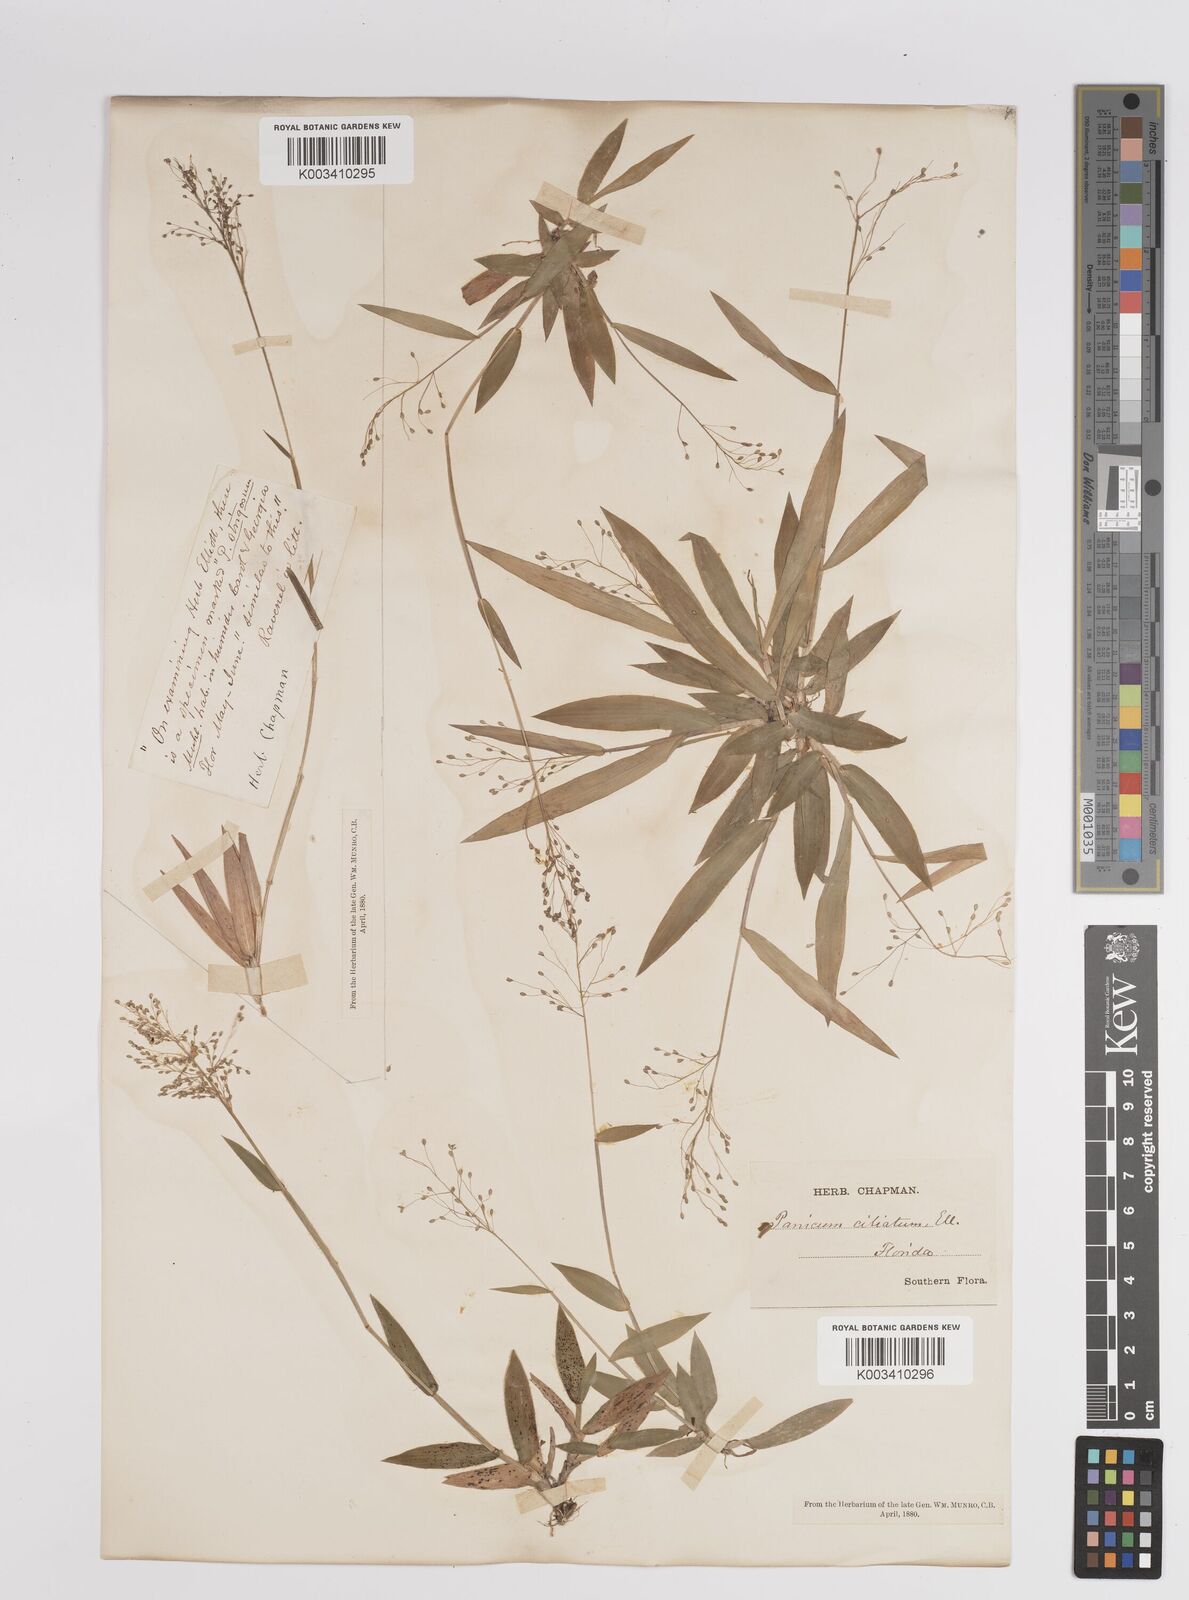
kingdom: Plantae
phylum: Tracheophyta
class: Liliopsida
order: Poales
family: Poaceae
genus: Dichanthelium
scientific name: Dichanthelium strigosum
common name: Cushion-tuft panic grass
